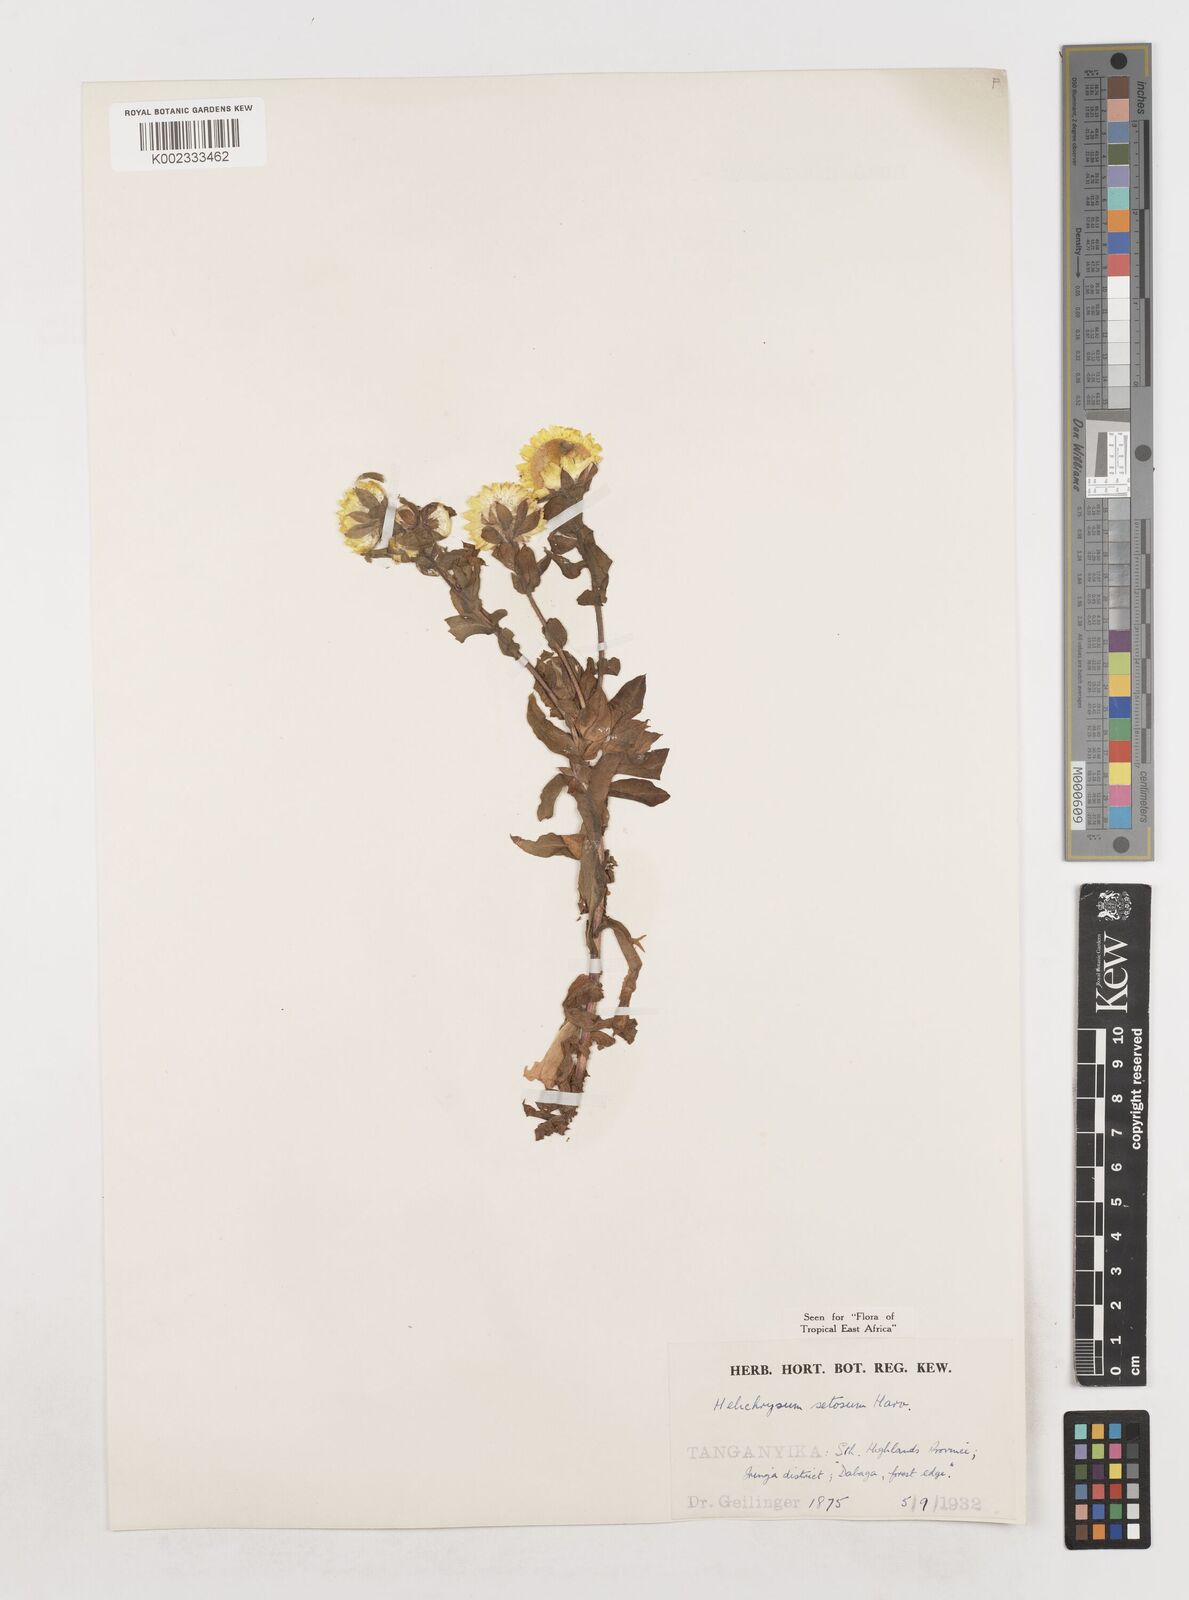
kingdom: Plantae
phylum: Tracheophyta
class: Magnoliopsida
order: Asterales
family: Asteraceae
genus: Helichrysum
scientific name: Helichrysum setosum
